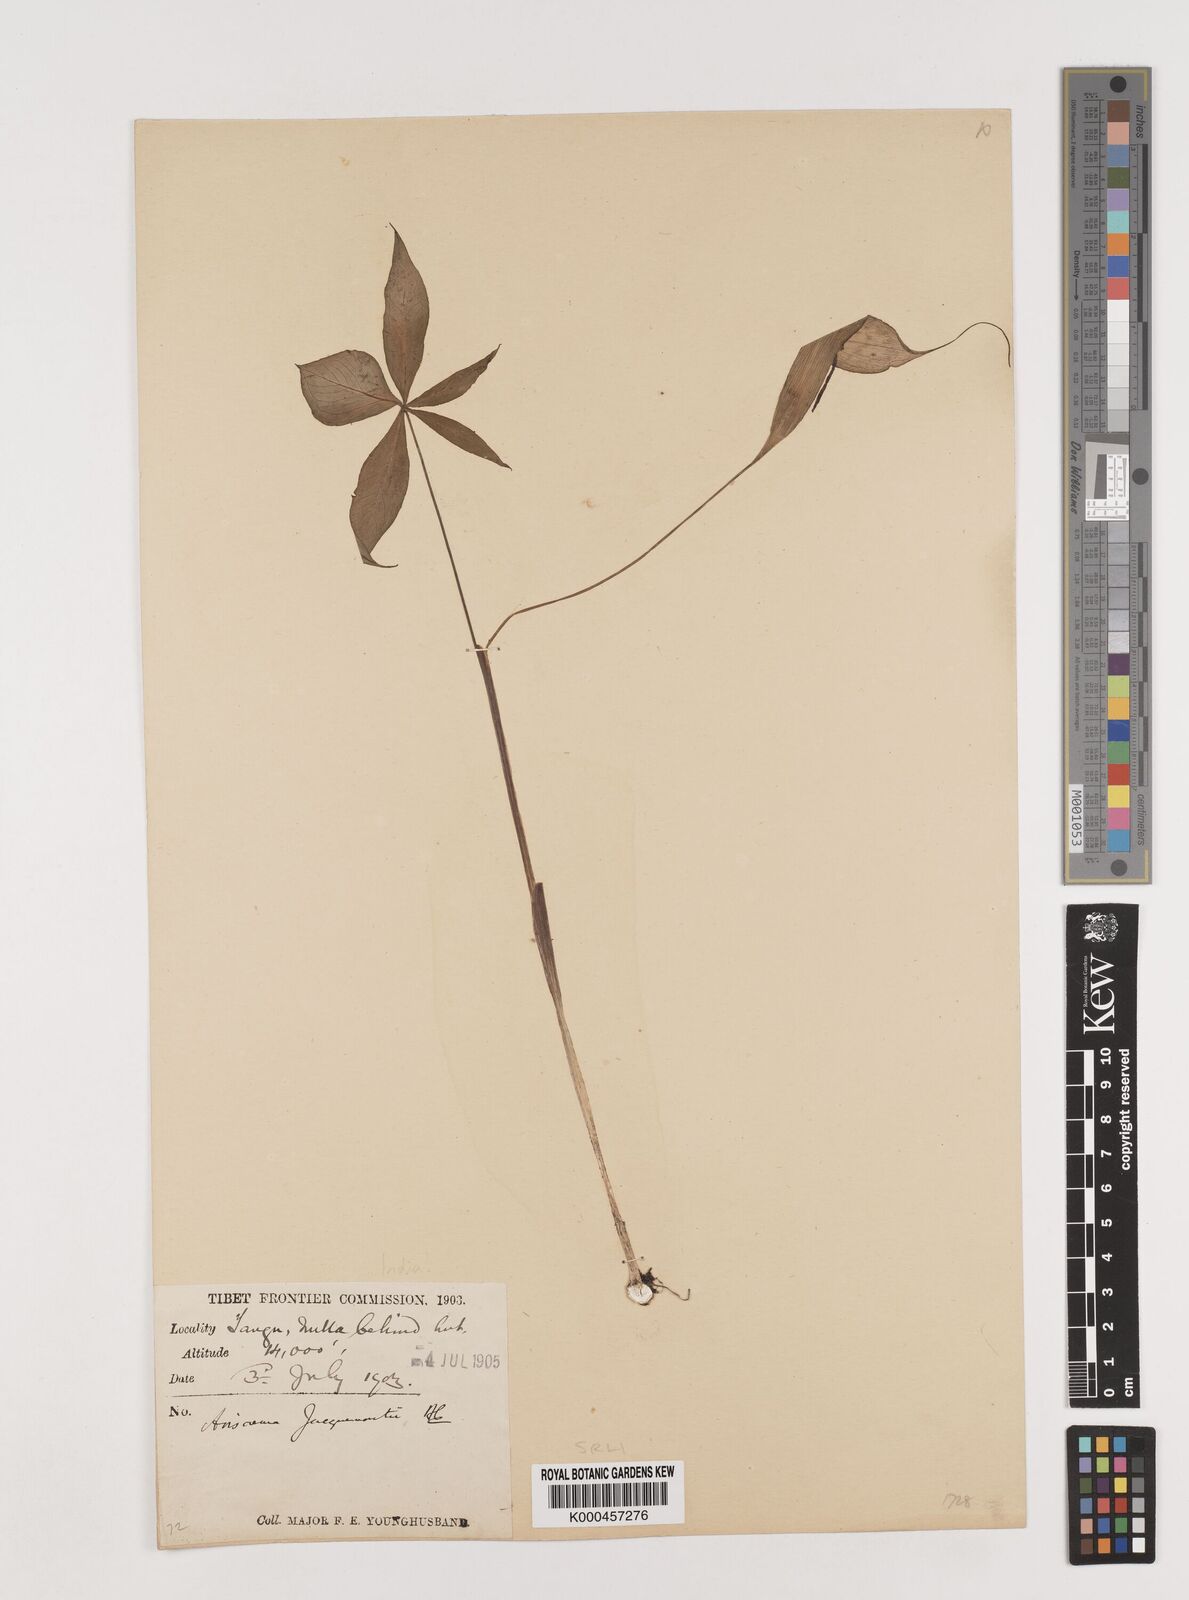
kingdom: Plantae
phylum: Tracheophyta
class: Liliopsida
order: Alismatales
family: Araceae
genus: Arisaema
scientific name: Arisaema jacquemontii
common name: Jacquemont's cobra-lily
